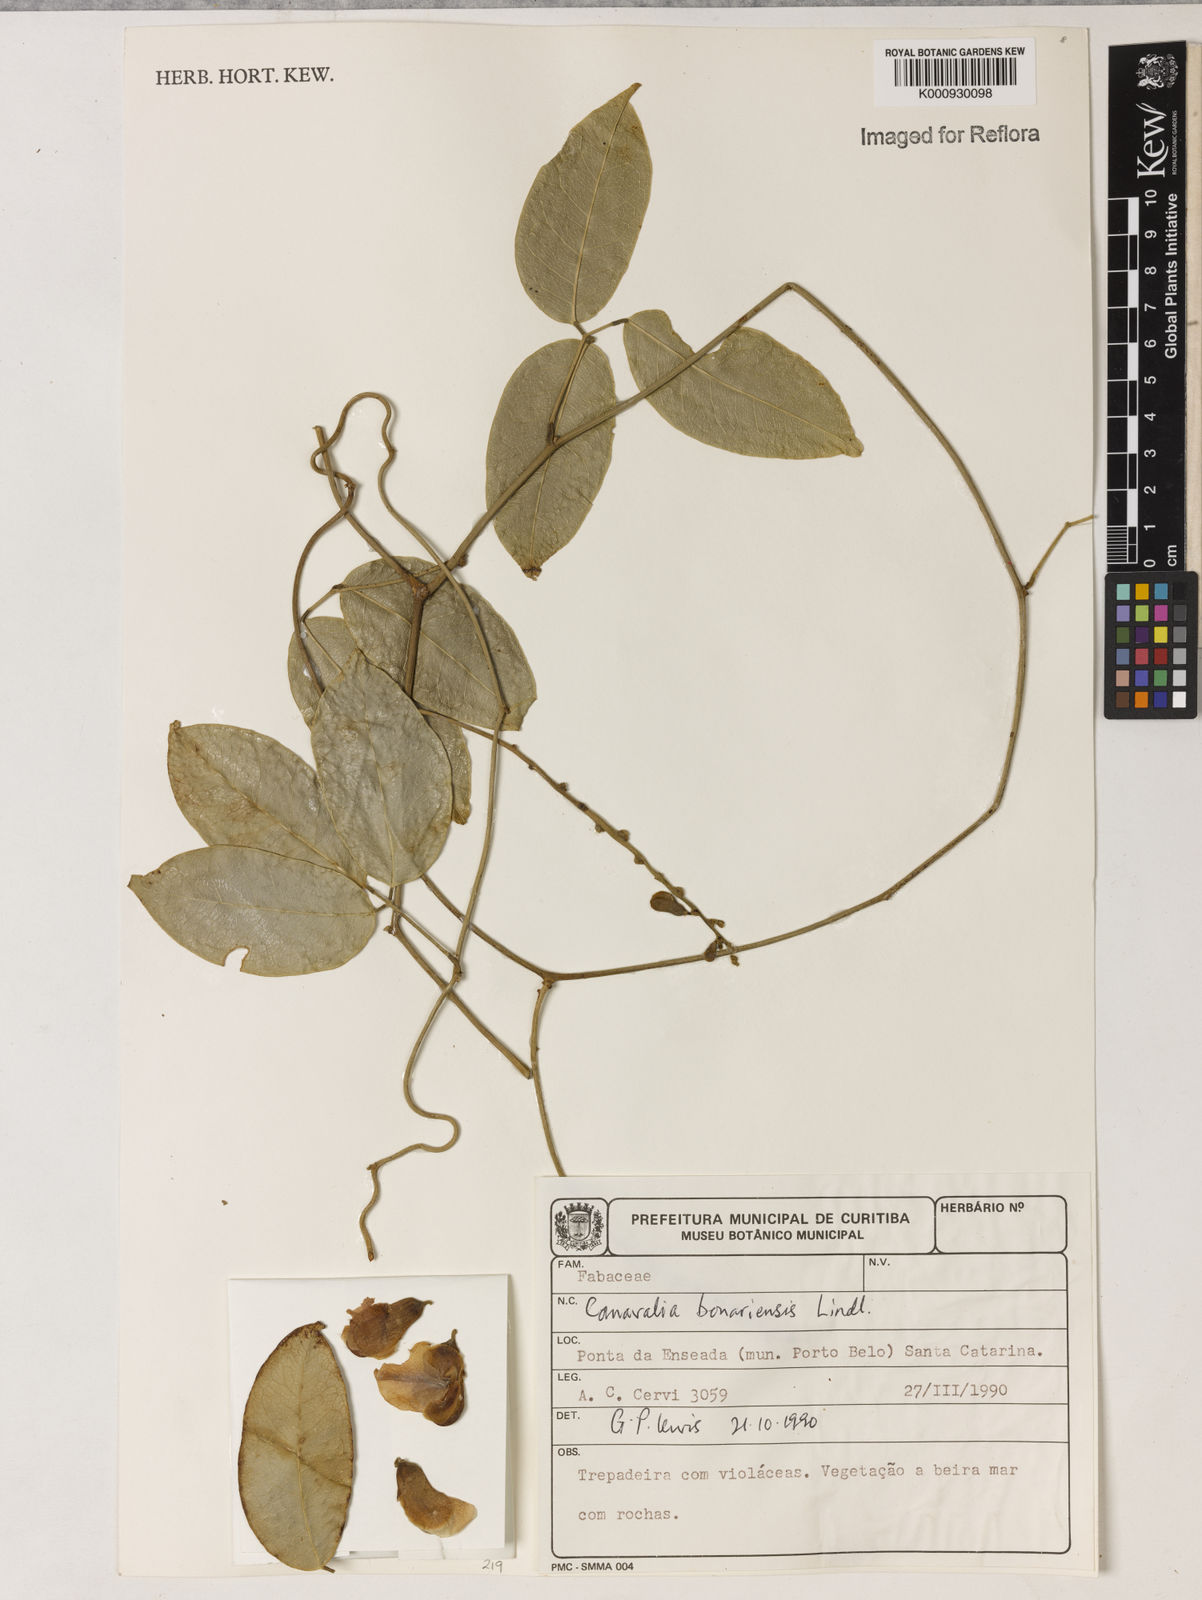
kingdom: Plantae
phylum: Tracheophyta
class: Magnoliopsida
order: Fabales
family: Fabaceae
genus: Canavalia
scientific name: Canavalia bonariensis
